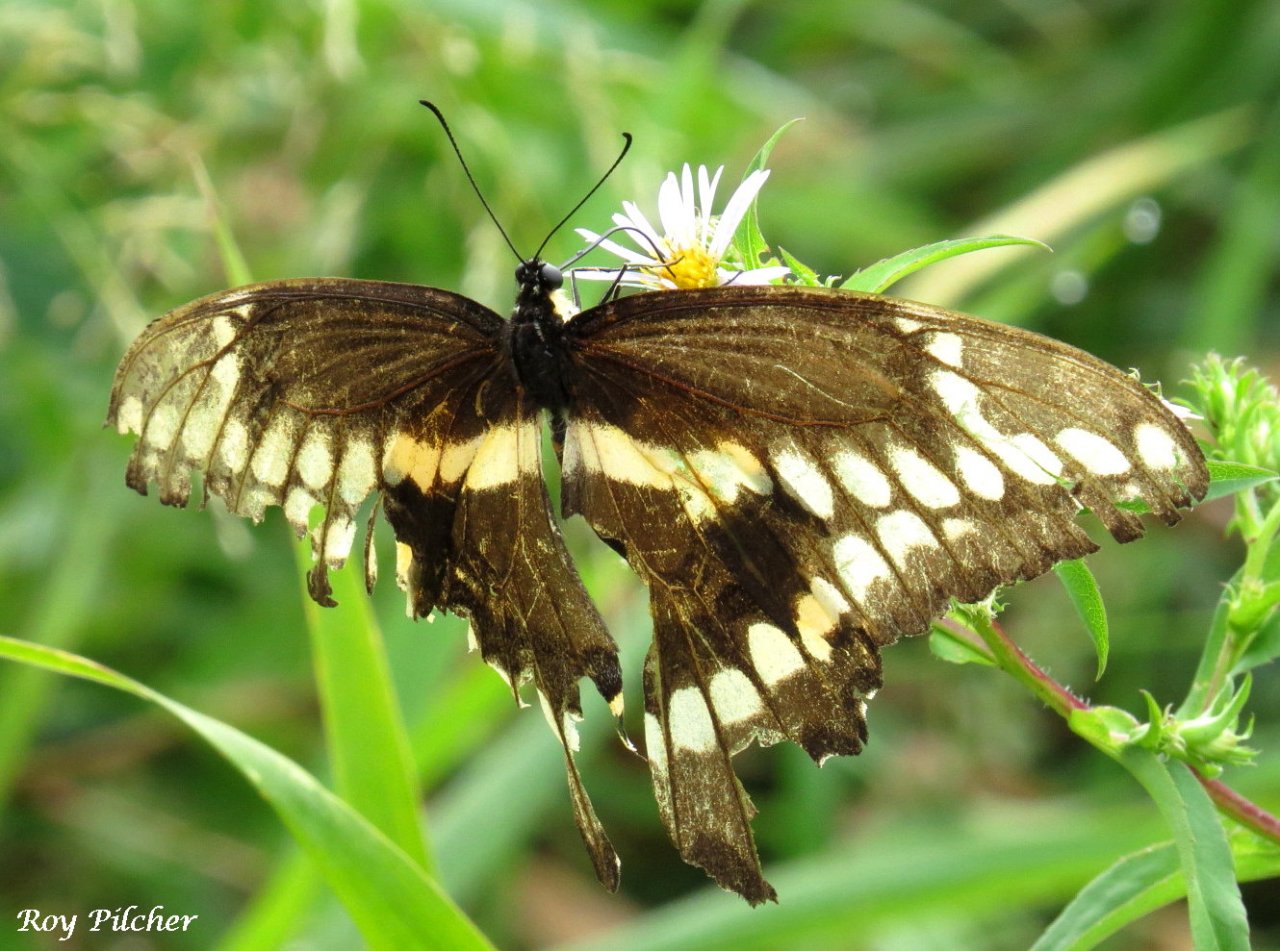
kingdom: Animalia
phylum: Arthropoda
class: Insecta
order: Lepidoptera
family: Papilionidae
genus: Papilio
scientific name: Papilio cresphontes
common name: Eastern Giant Swallowtail
